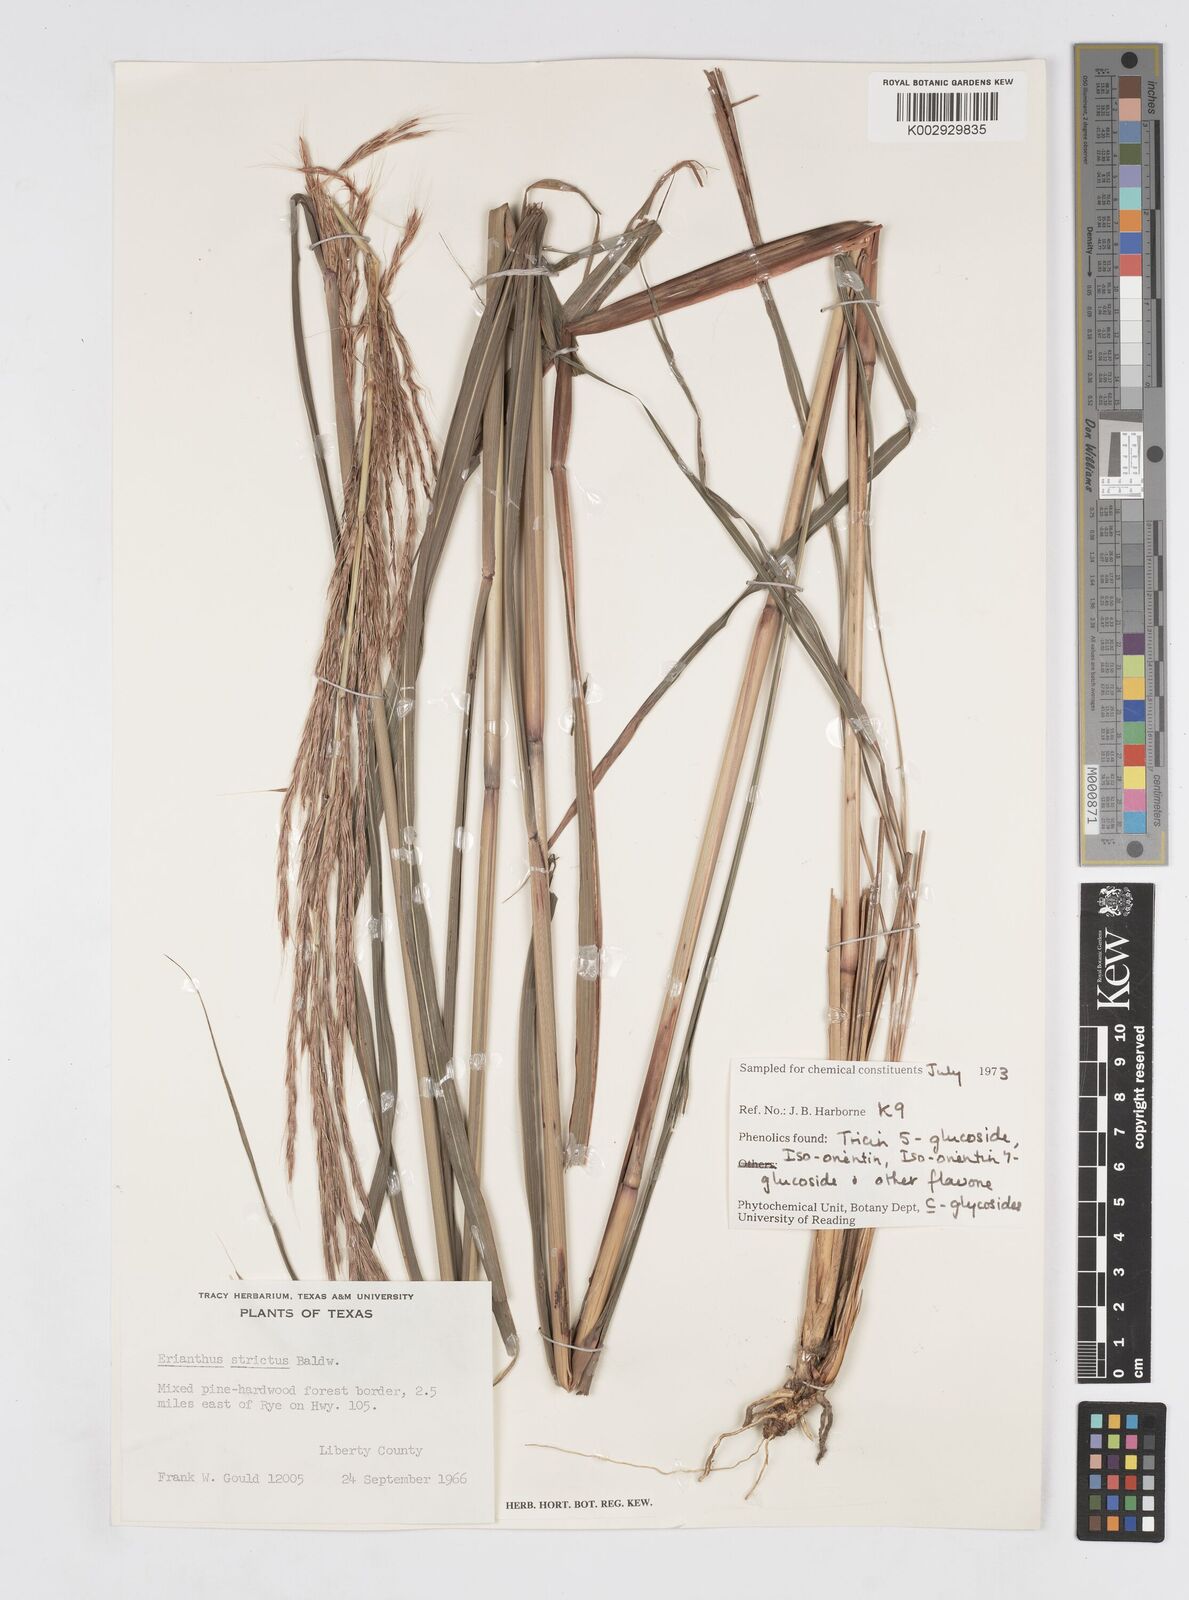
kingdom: Plantae
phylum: Tracheophyta
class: Liliopsida
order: Poales
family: Poaceae
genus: Erianthus
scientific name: Erianthus strictus
